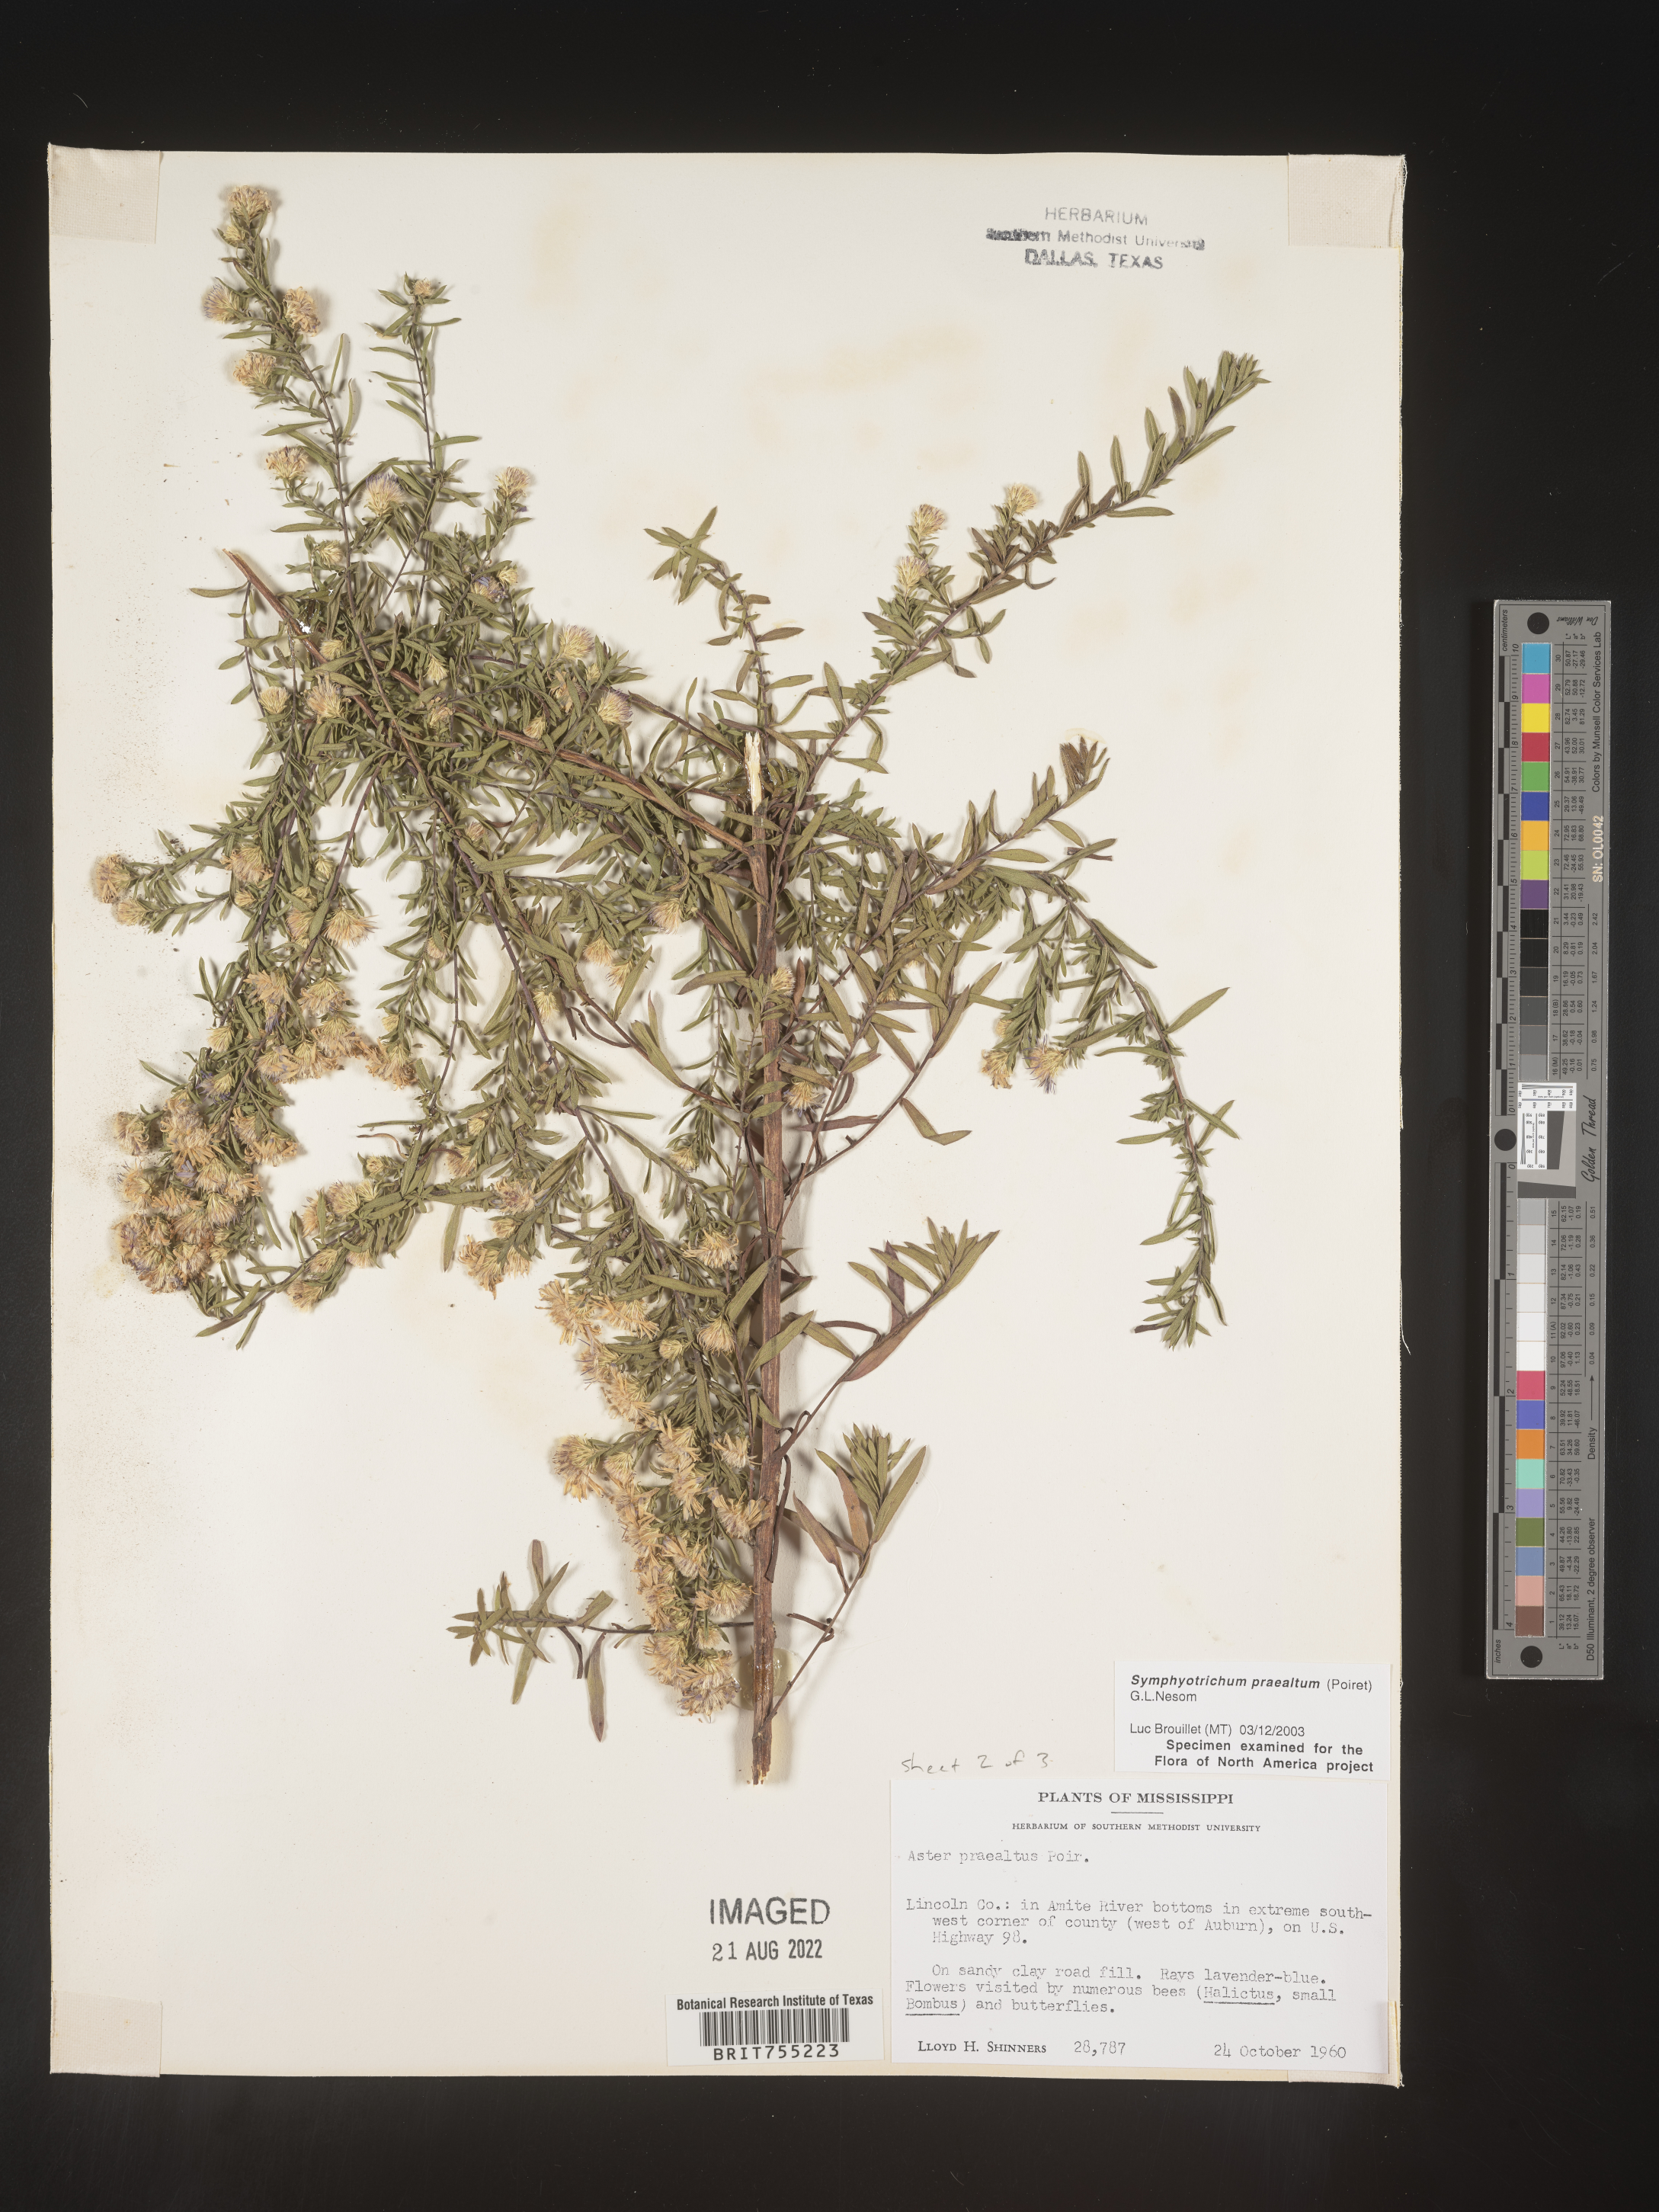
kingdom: Plantae
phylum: Tracheophyta
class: Magnoliopsida
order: Asterales
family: Asteraceae
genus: Symphyotrichum
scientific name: Symphyotrichum praealtum
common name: Willow aster
